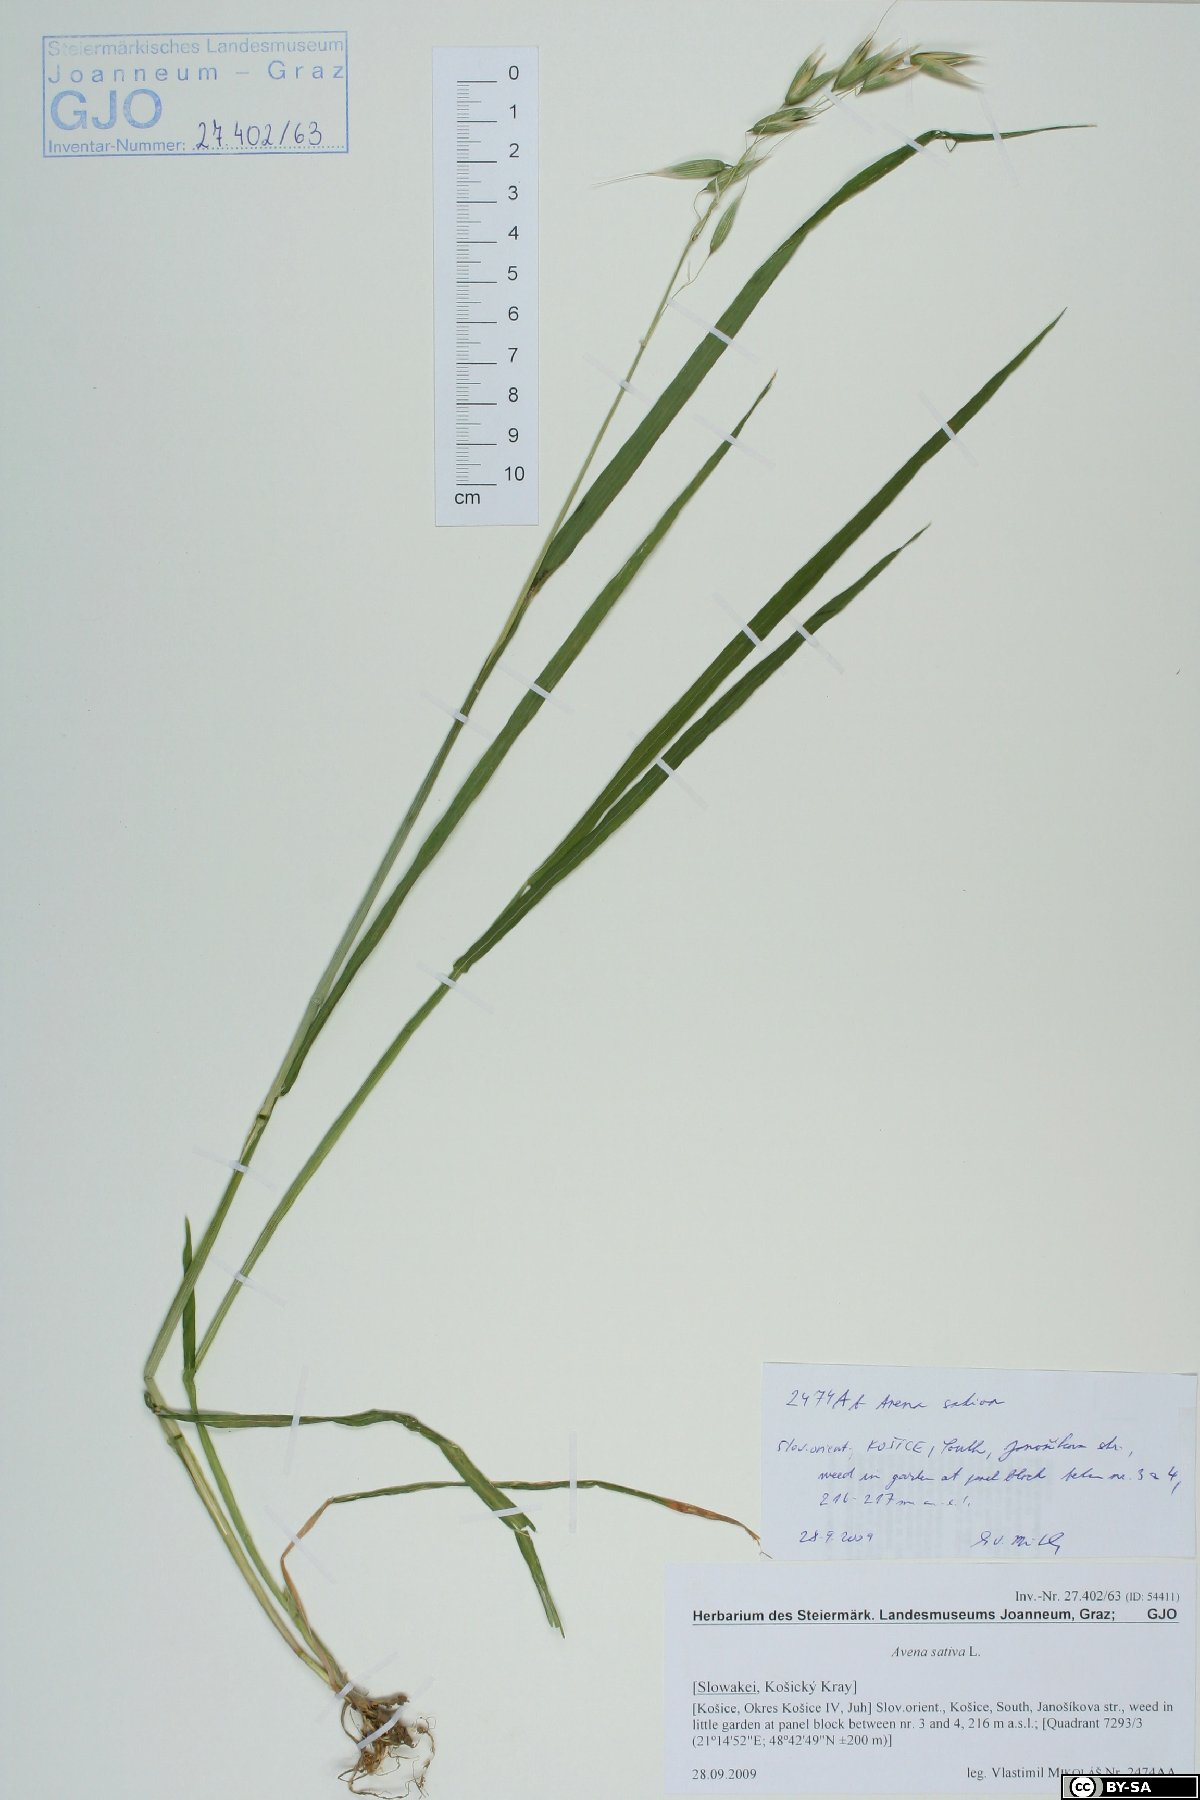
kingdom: Plantae
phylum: Tracheophyta
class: Liliopsida
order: Poales
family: Poaceae
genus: Avena
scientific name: Avena sativa
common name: Oat
